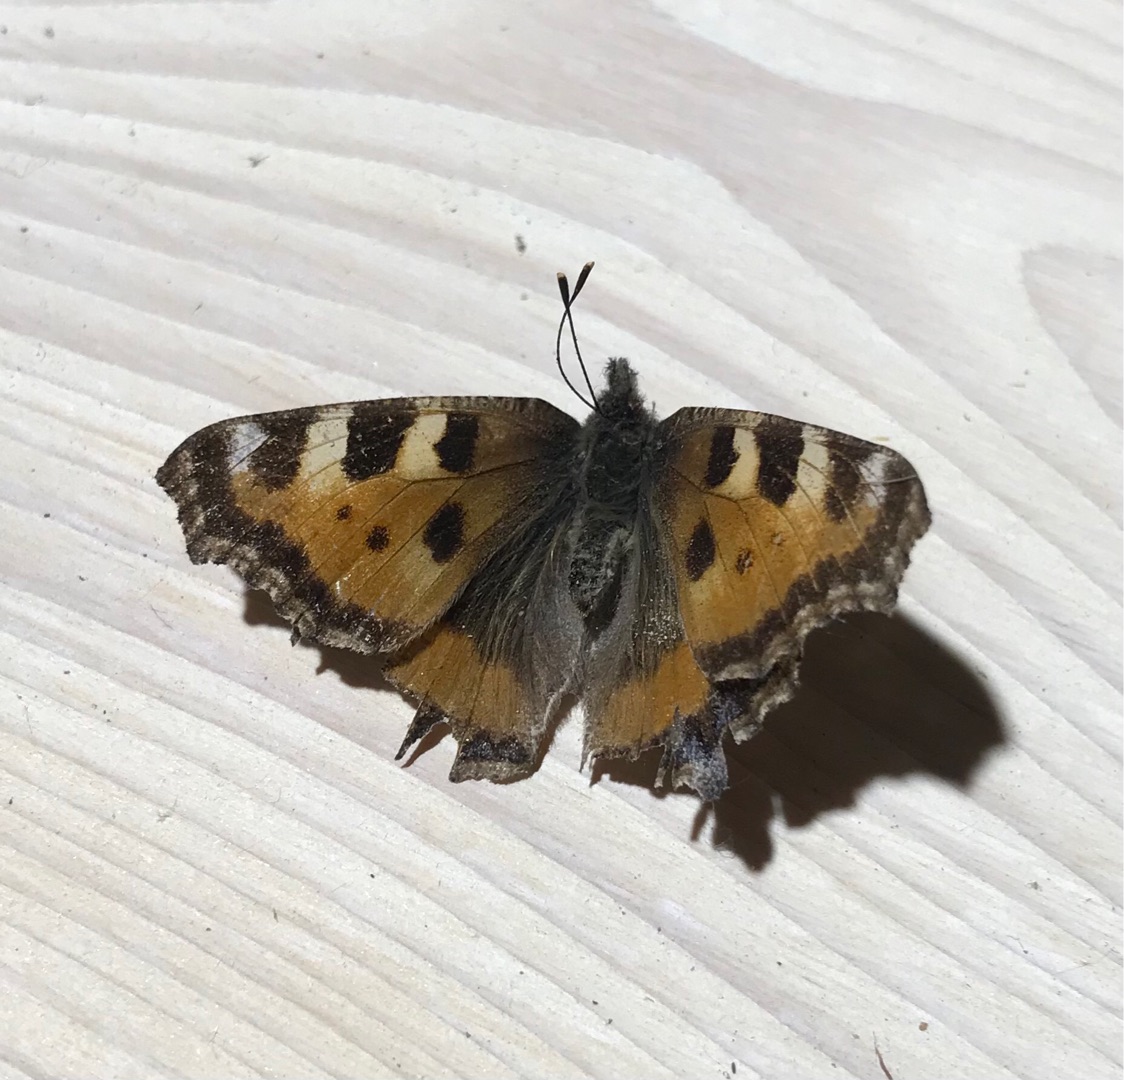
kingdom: Animalia
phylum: Arthropoda
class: Insecta
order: Lepidoptera
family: Nymphalidae
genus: Aglais
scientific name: Aglais urticae
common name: Nældens takvinge
